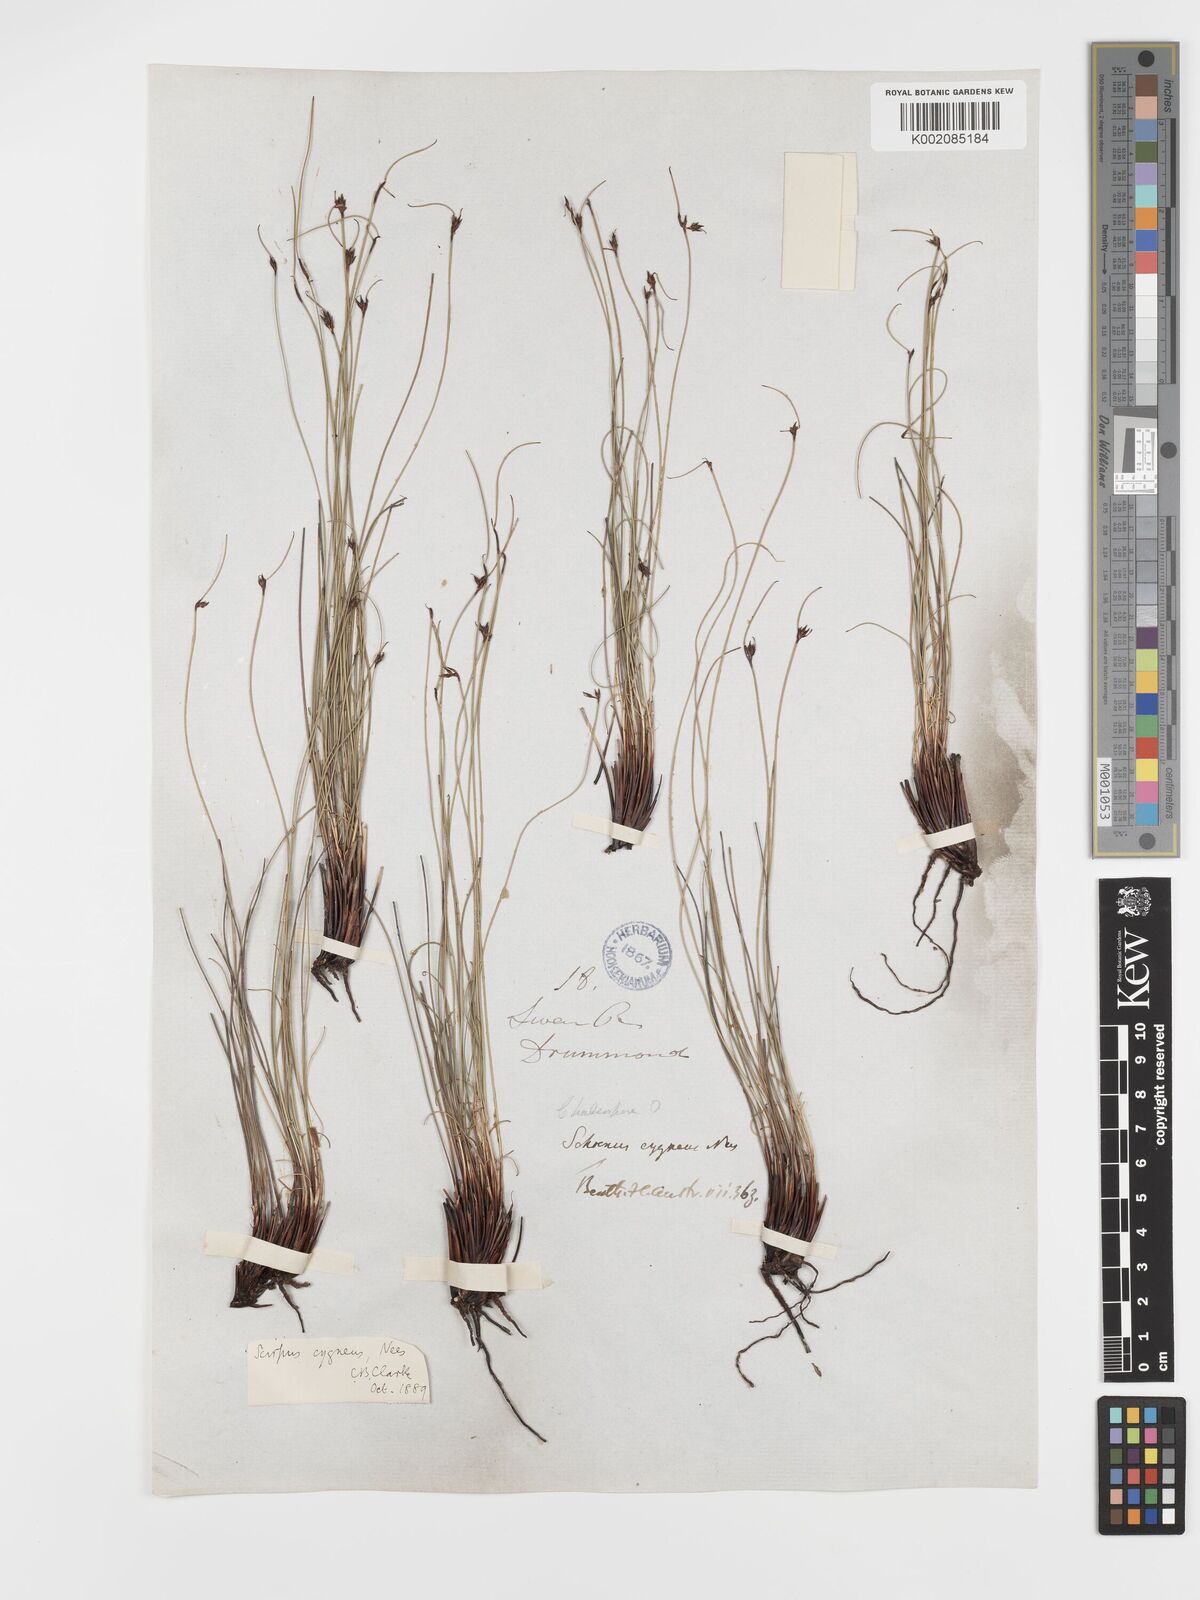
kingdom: Plantae
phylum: Tracheophyta
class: Liliopsida
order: Poales
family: Cyperaceae
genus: Schoenus
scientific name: Schoenus cygneus
